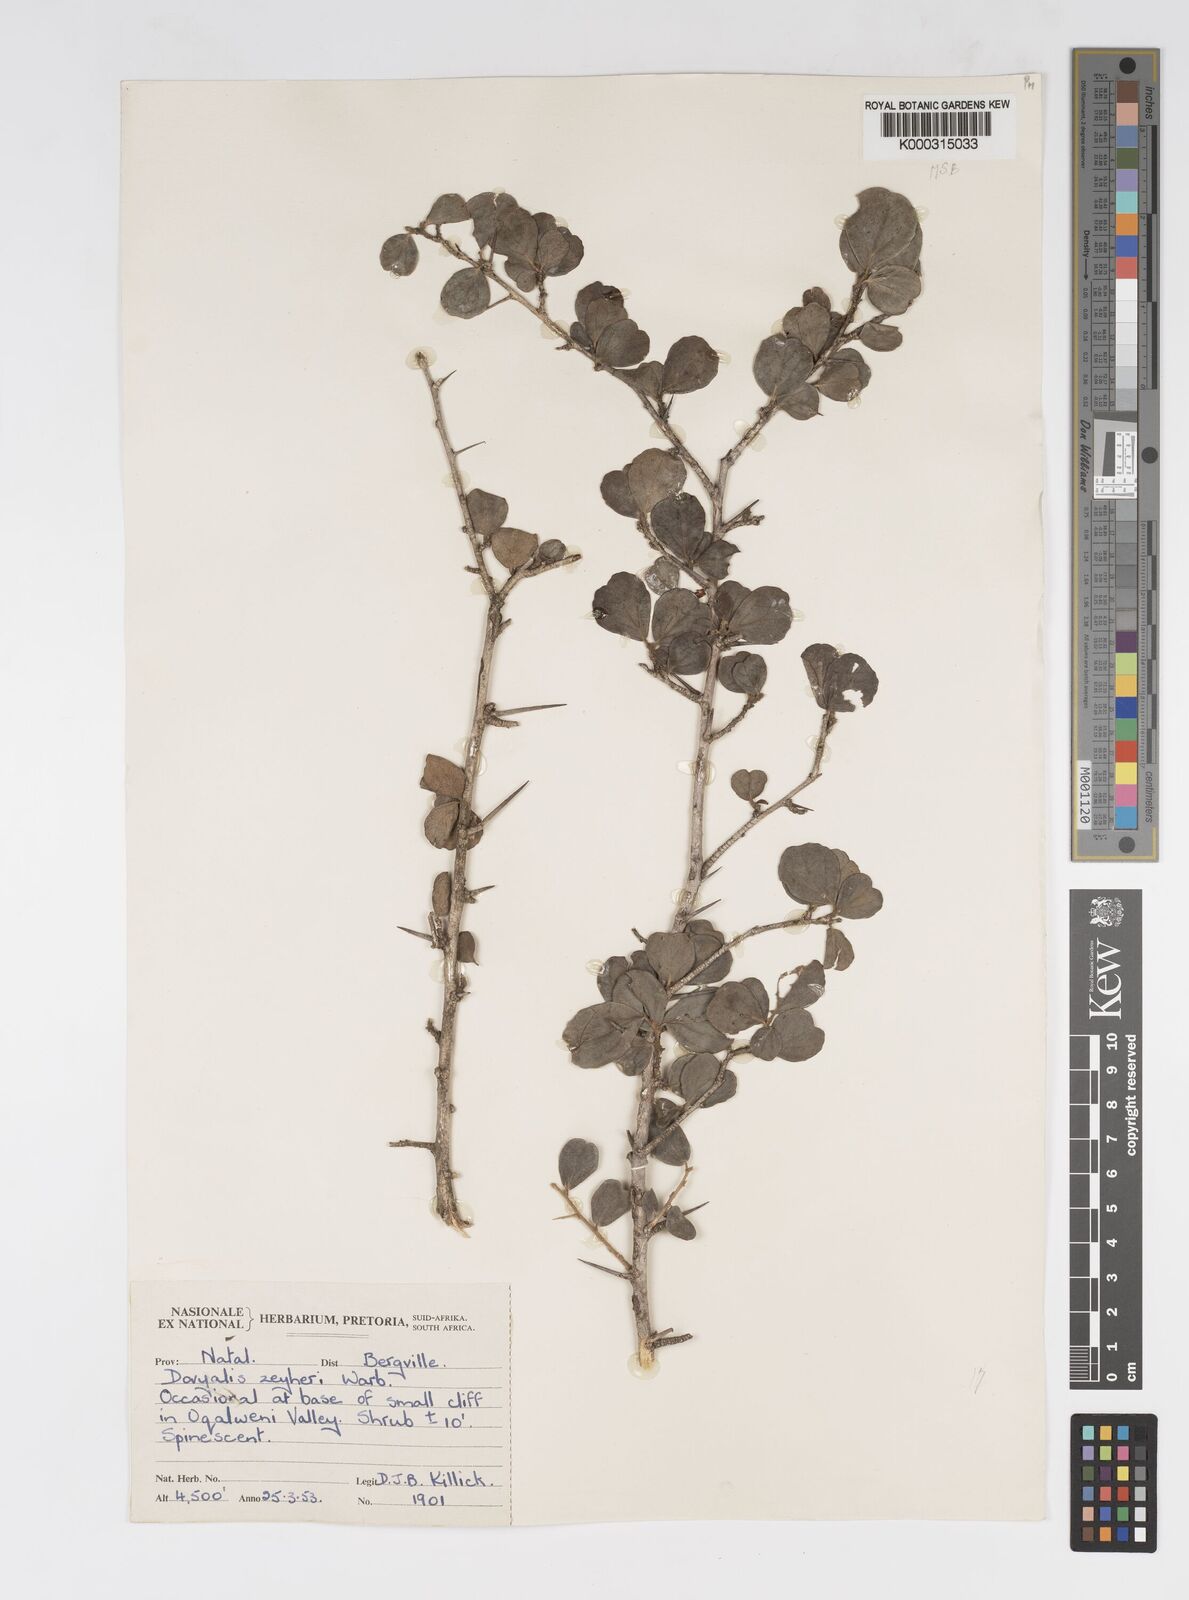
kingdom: Plantae
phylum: Tracheophyta
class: Magnoliopsida
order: Malpighiales
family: Salicaceae
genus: Dovyalis
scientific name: Dovyalis zeyheri
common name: Apricot sourberry
